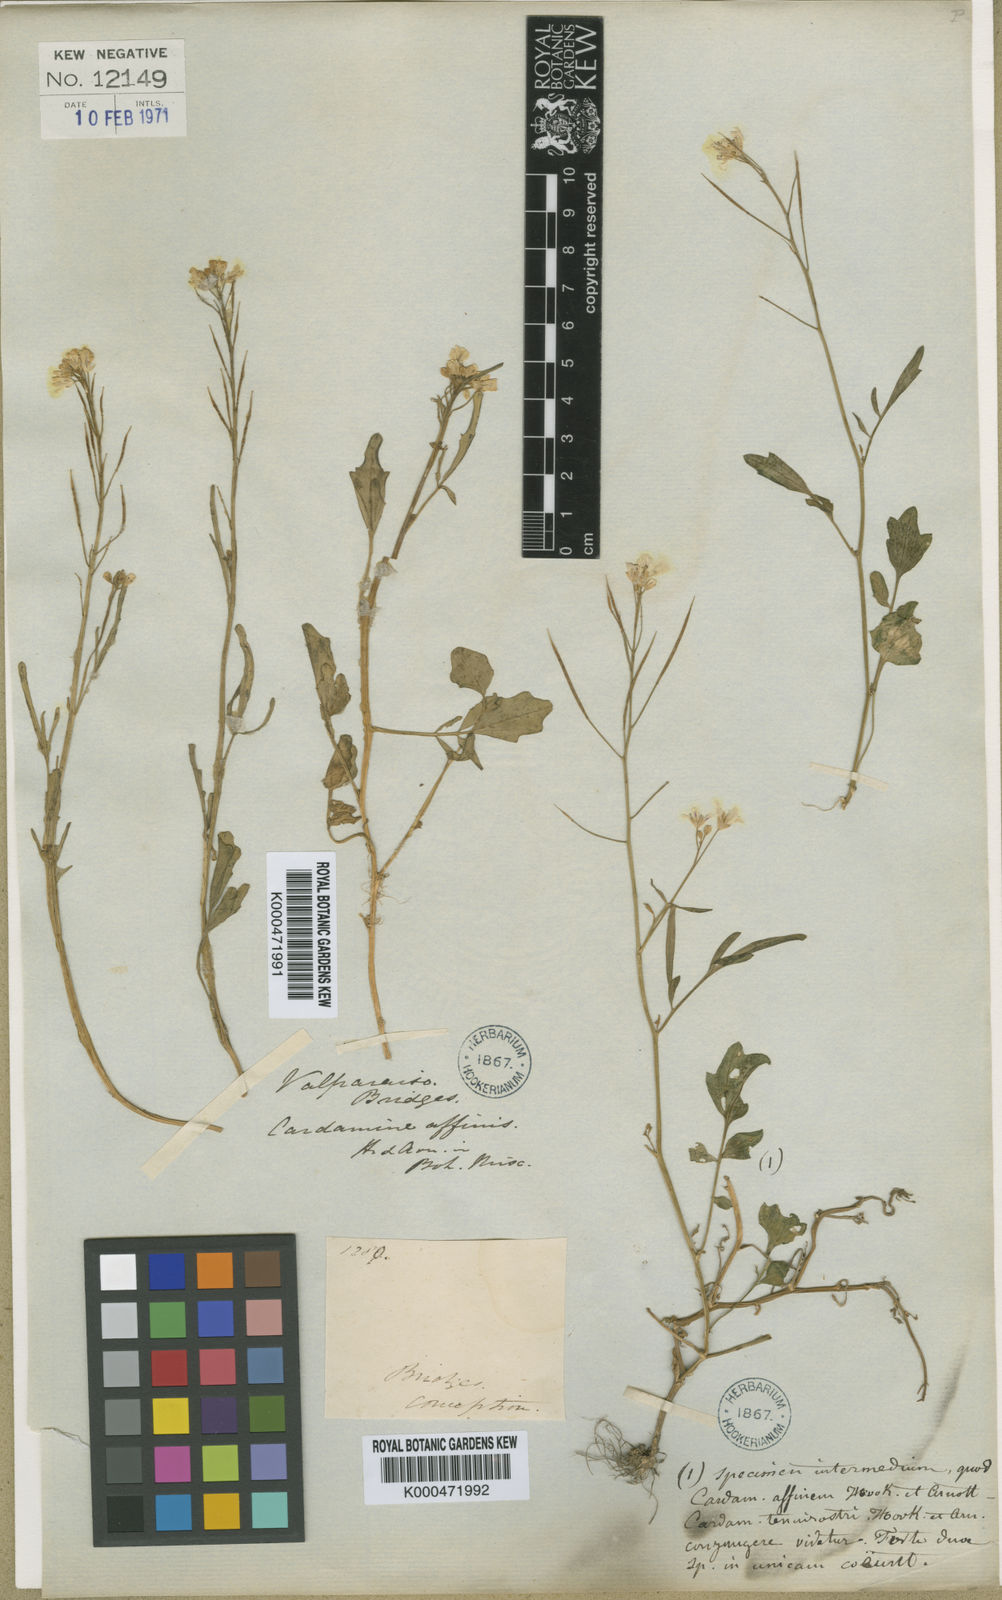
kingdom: Plantae
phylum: Tracheophyta
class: Magnoliopsida
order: Brassicales
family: Brassicaceae
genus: Cardamine
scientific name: Cardamine tenuirostris
